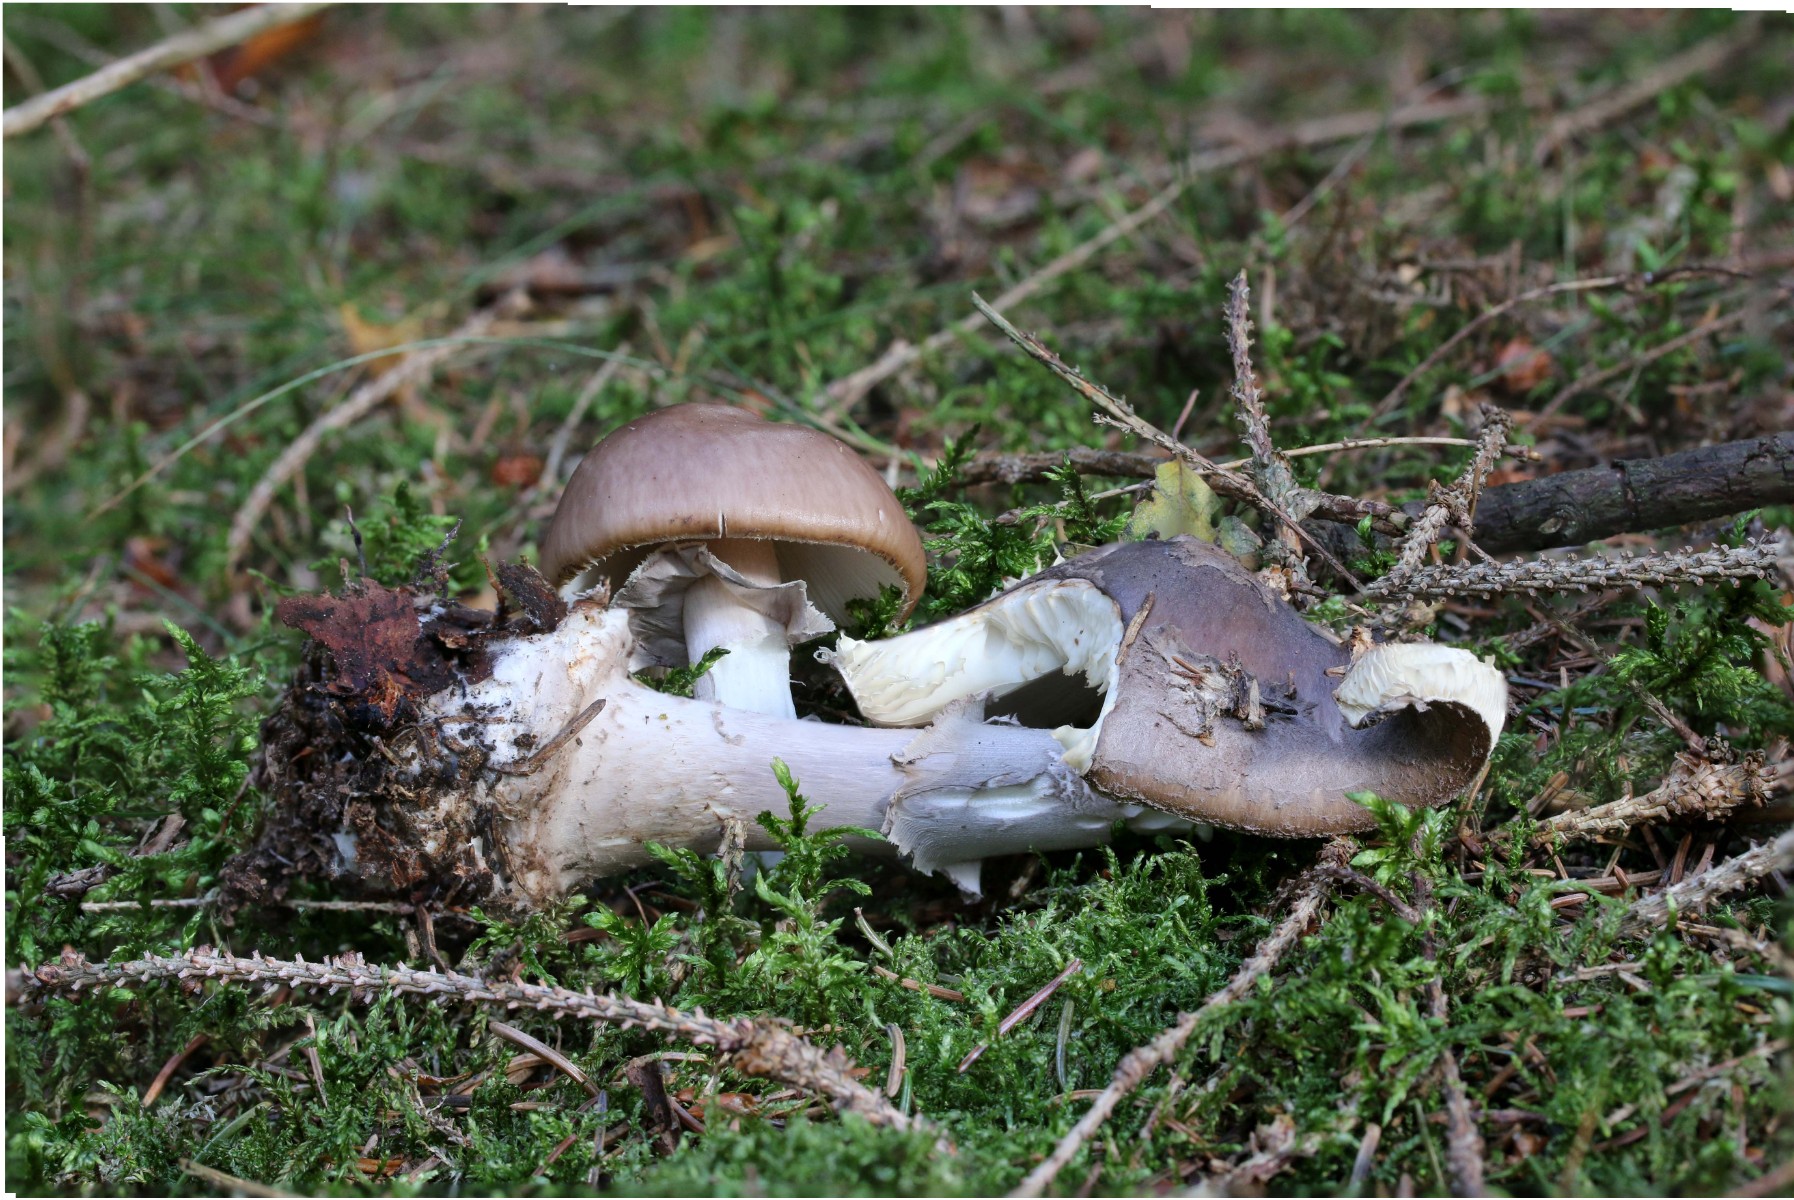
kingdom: Fungi
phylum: Basidiomycota
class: Agaricomycetes
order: Agaricales
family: Amanitaceae
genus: Amanita
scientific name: Amanita porphyria
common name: porfyr-fluesvamp
